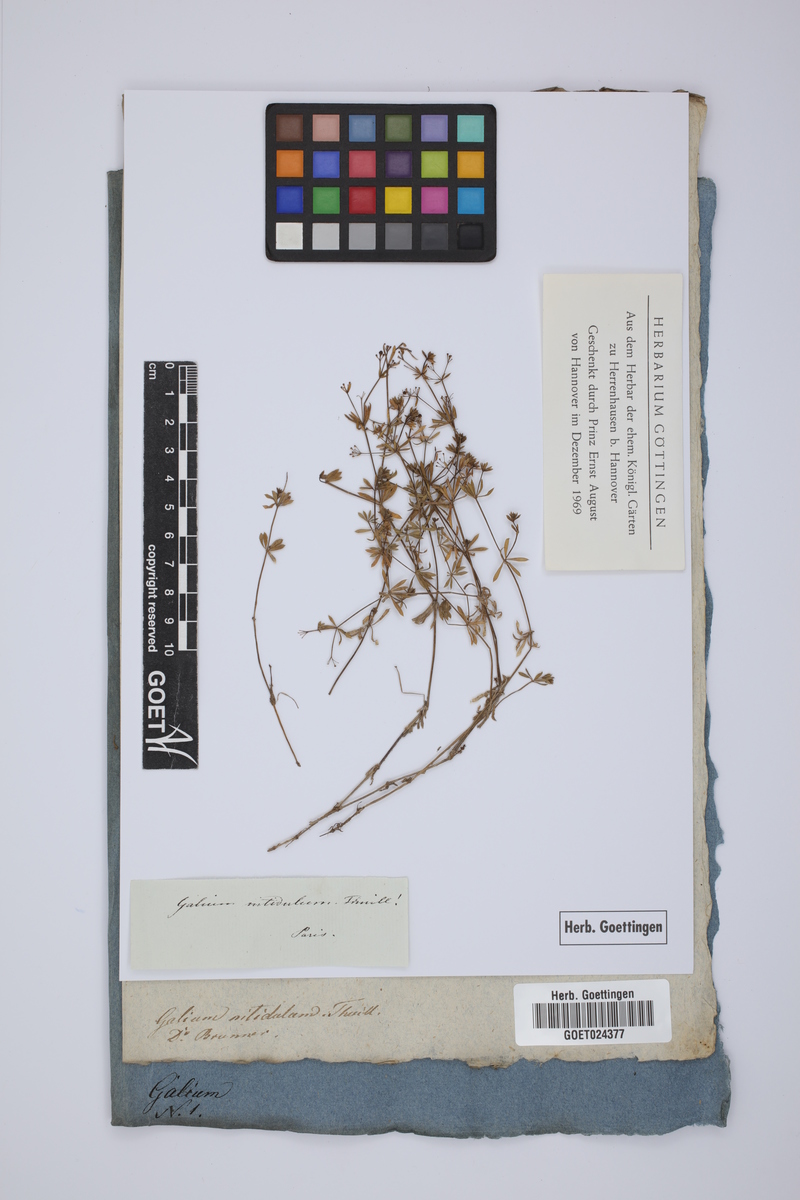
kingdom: Plantae
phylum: Tracheophyta
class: Magnoliopsida
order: Gentianales
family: Rubiaceae
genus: Galium
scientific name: Galium pumilum
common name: Slender bedstraw
